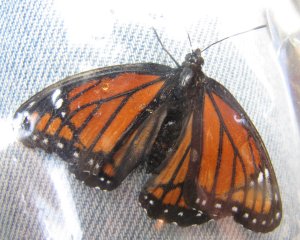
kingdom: Animalia
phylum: Arthropoda
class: Insecta
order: Lepidoptera
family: Nymphalidae
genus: Limenitis
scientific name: Limenitis archippus
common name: Viceroy
